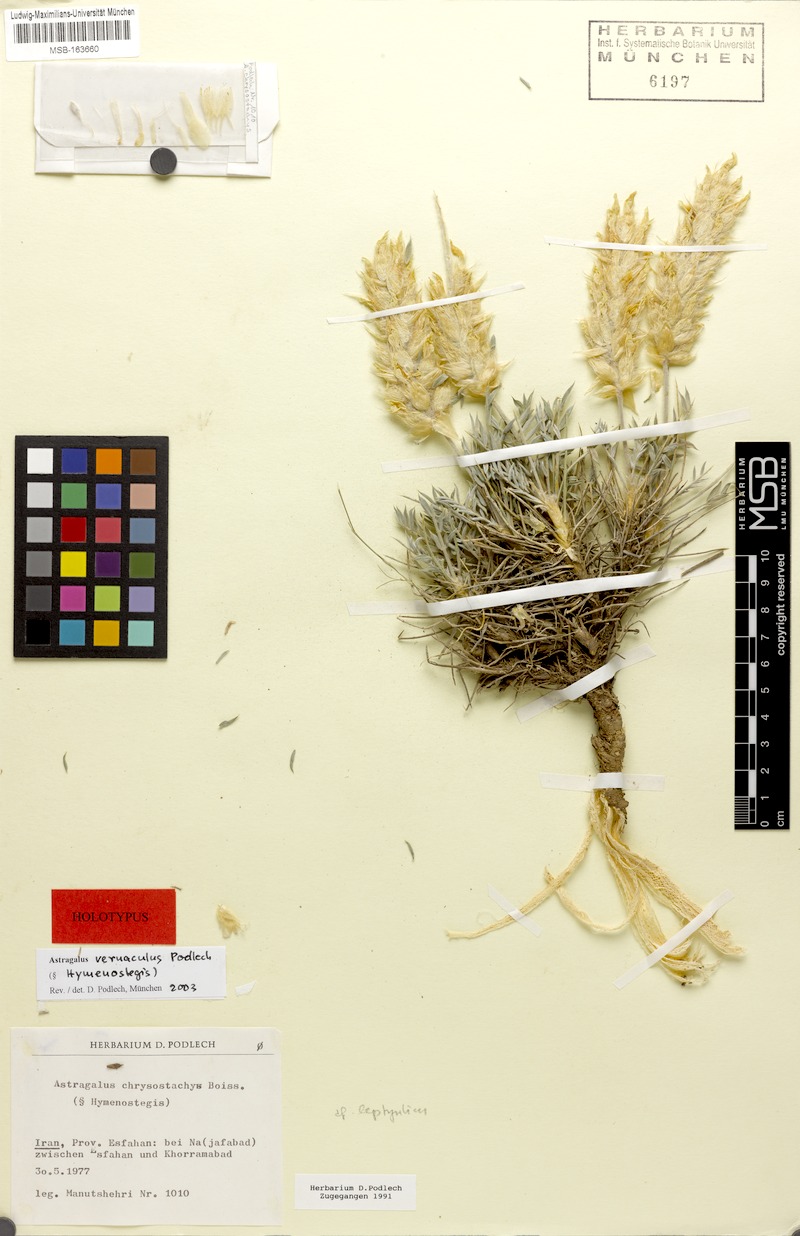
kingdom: Plantae
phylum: Tracheophyta
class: Magnoliopsida
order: Fabales
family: Fabaceae
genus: Astragalus
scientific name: Astragalus vernaculus
